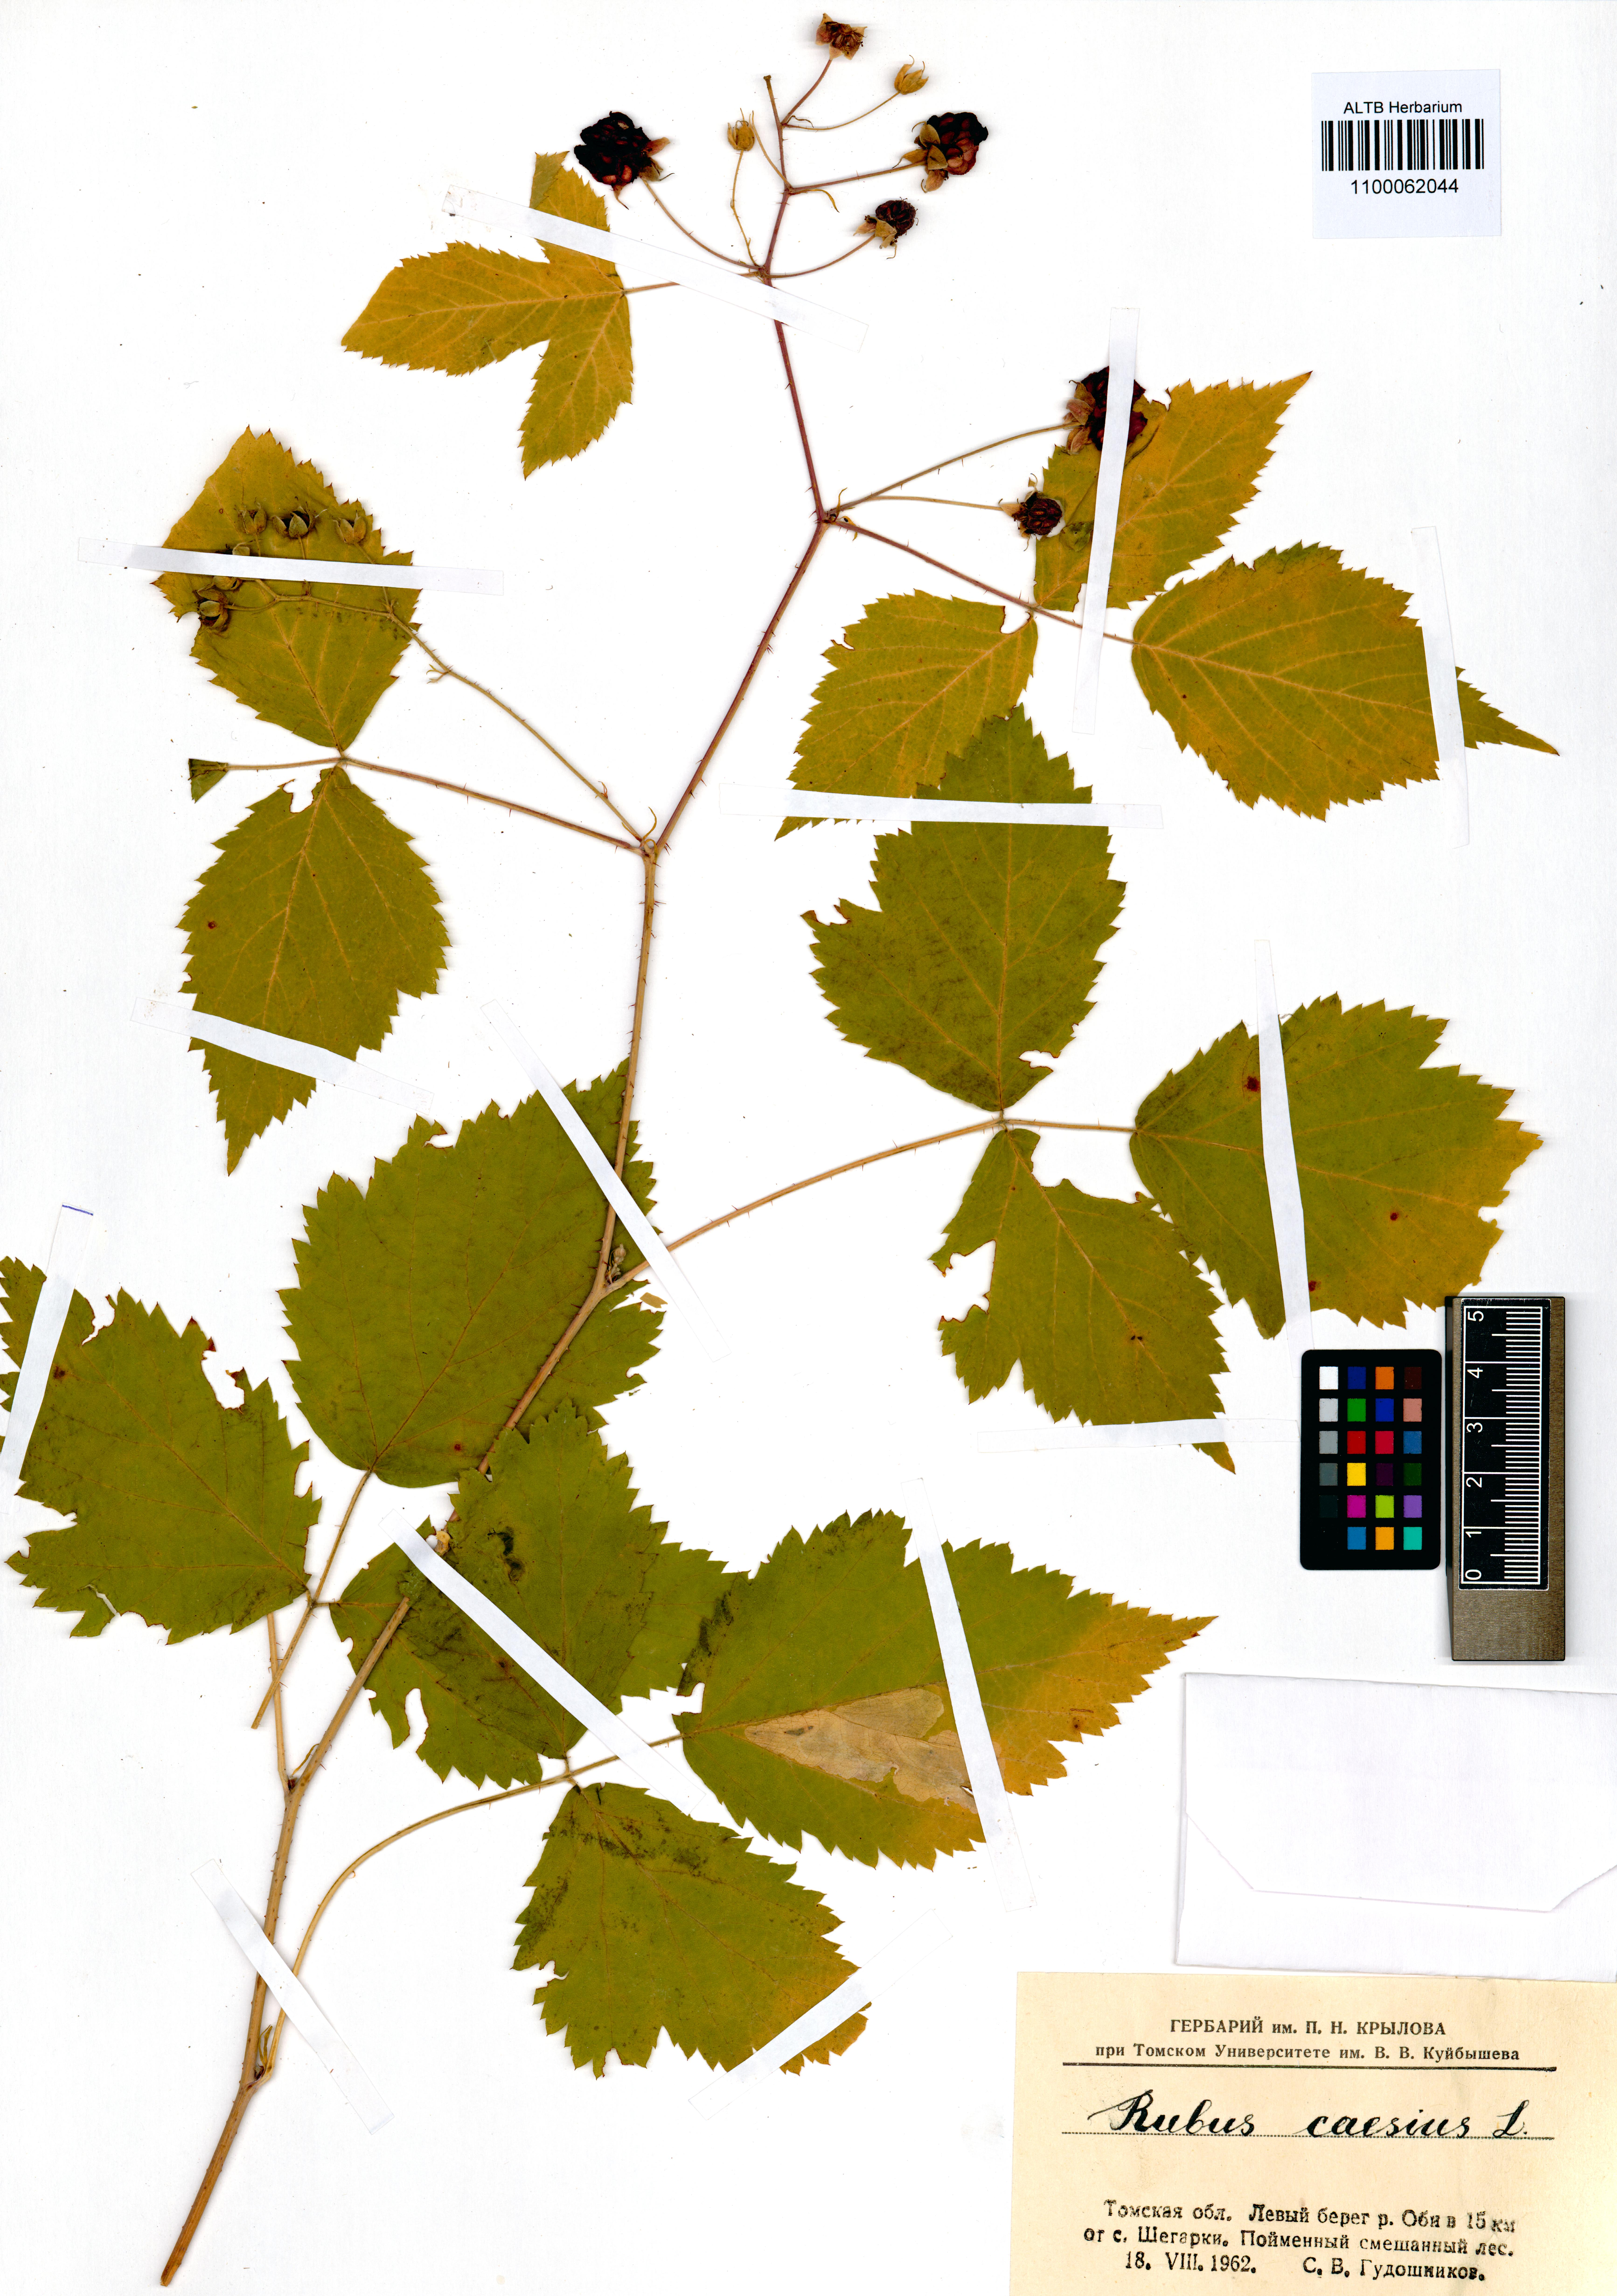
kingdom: Plantae
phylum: Tracheophyta
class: Magnoliopsida
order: Rosales
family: Rosaceae
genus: Rubus
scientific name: Rubus caesius
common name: Dewberry
